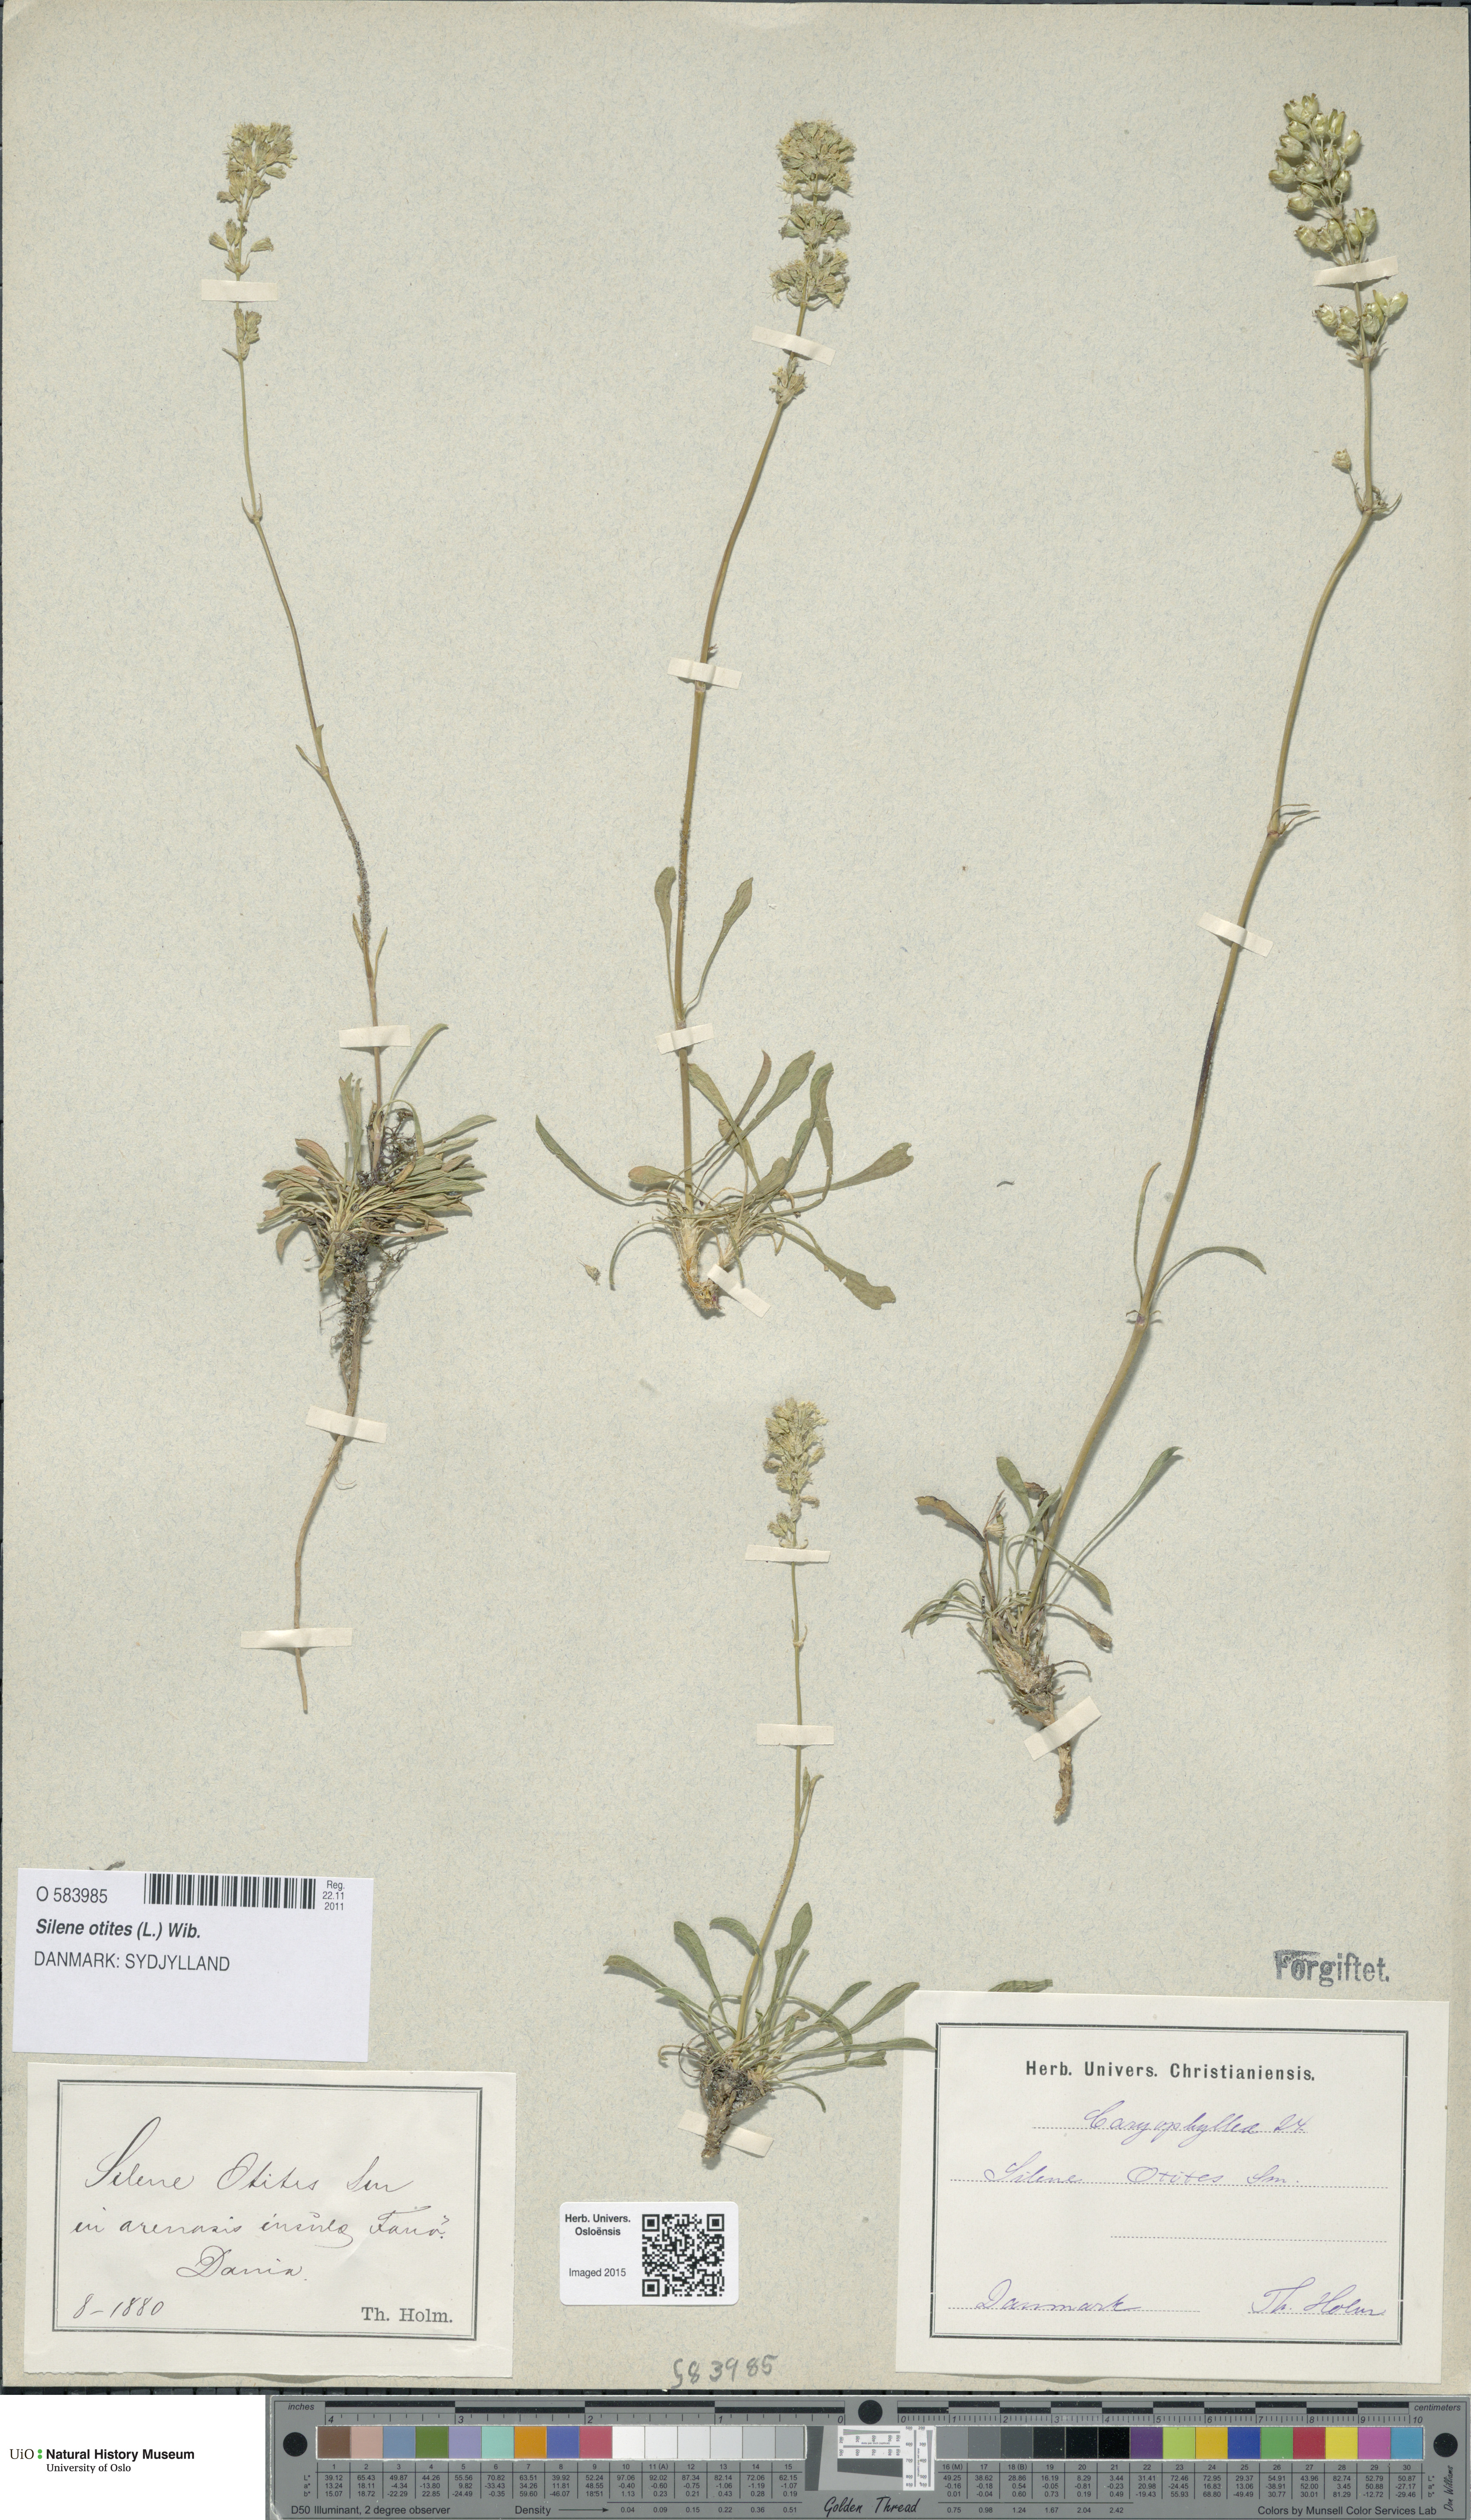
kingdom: Plantae
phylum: Tracheophyta
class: Magnoliopsida
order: Caryophyllales
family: Caryophyllaceae
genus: Silene
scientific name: Silene otites
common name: Spanish catchfly
